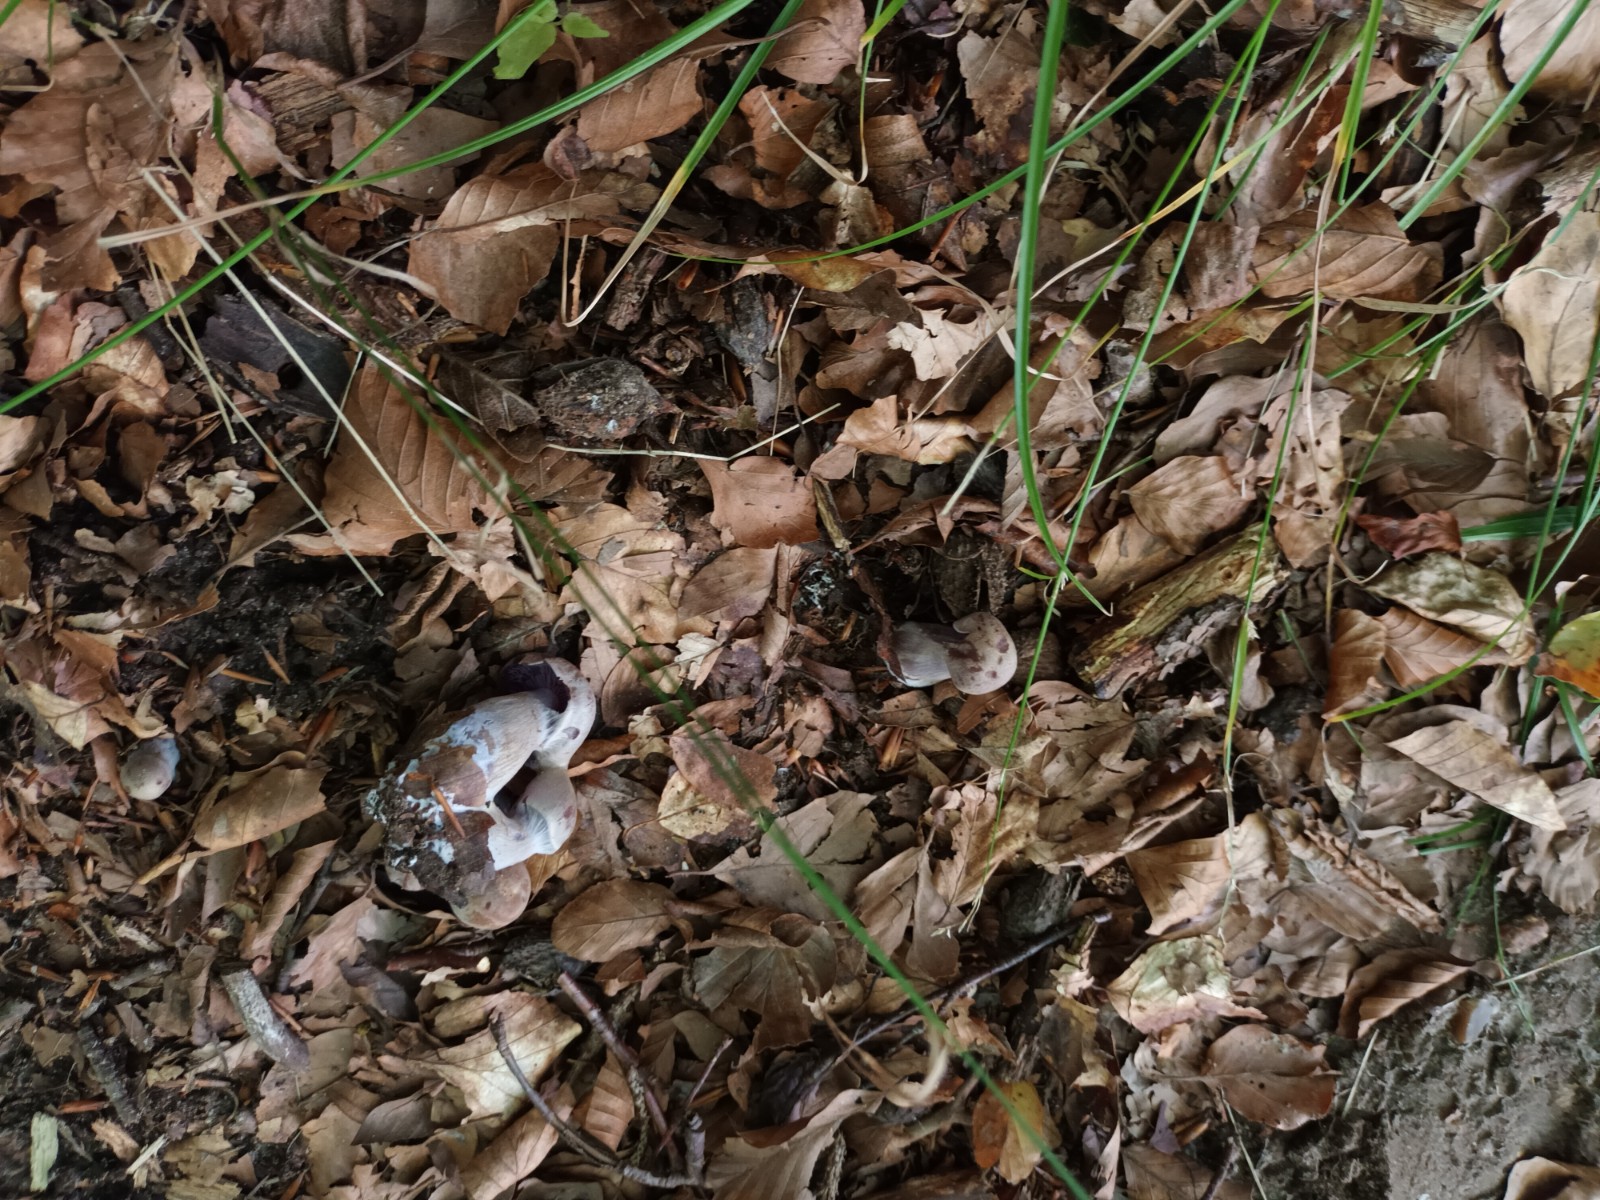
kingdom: Fungi
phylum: Basidiomycota
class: Agaricomycetes
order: Agaricales
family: Cortinariaceae
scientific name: Cortinariaceae
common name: slørhatfamilien
